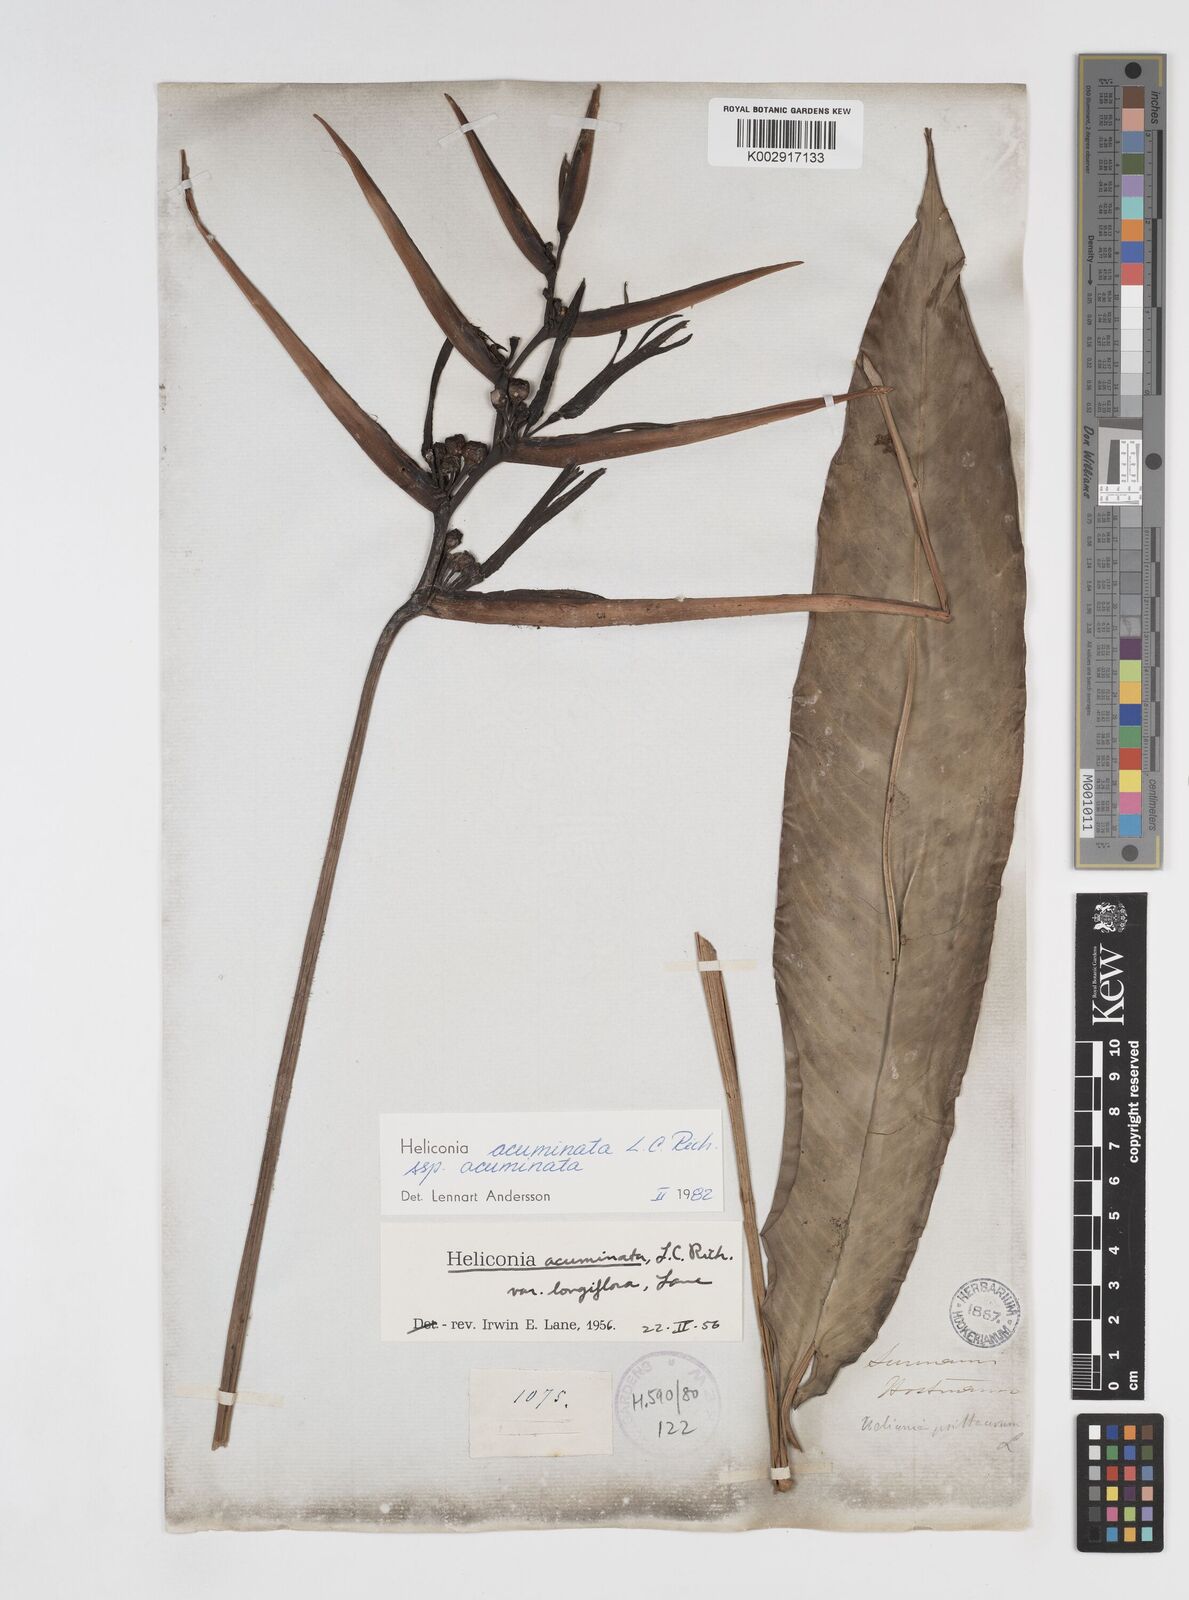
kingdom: Plantae
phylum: Tracheophyta
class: Liliopsida
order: Zingiberales
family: Heliconiaceae
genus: Heliconia
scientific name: Heliconia acuminata
